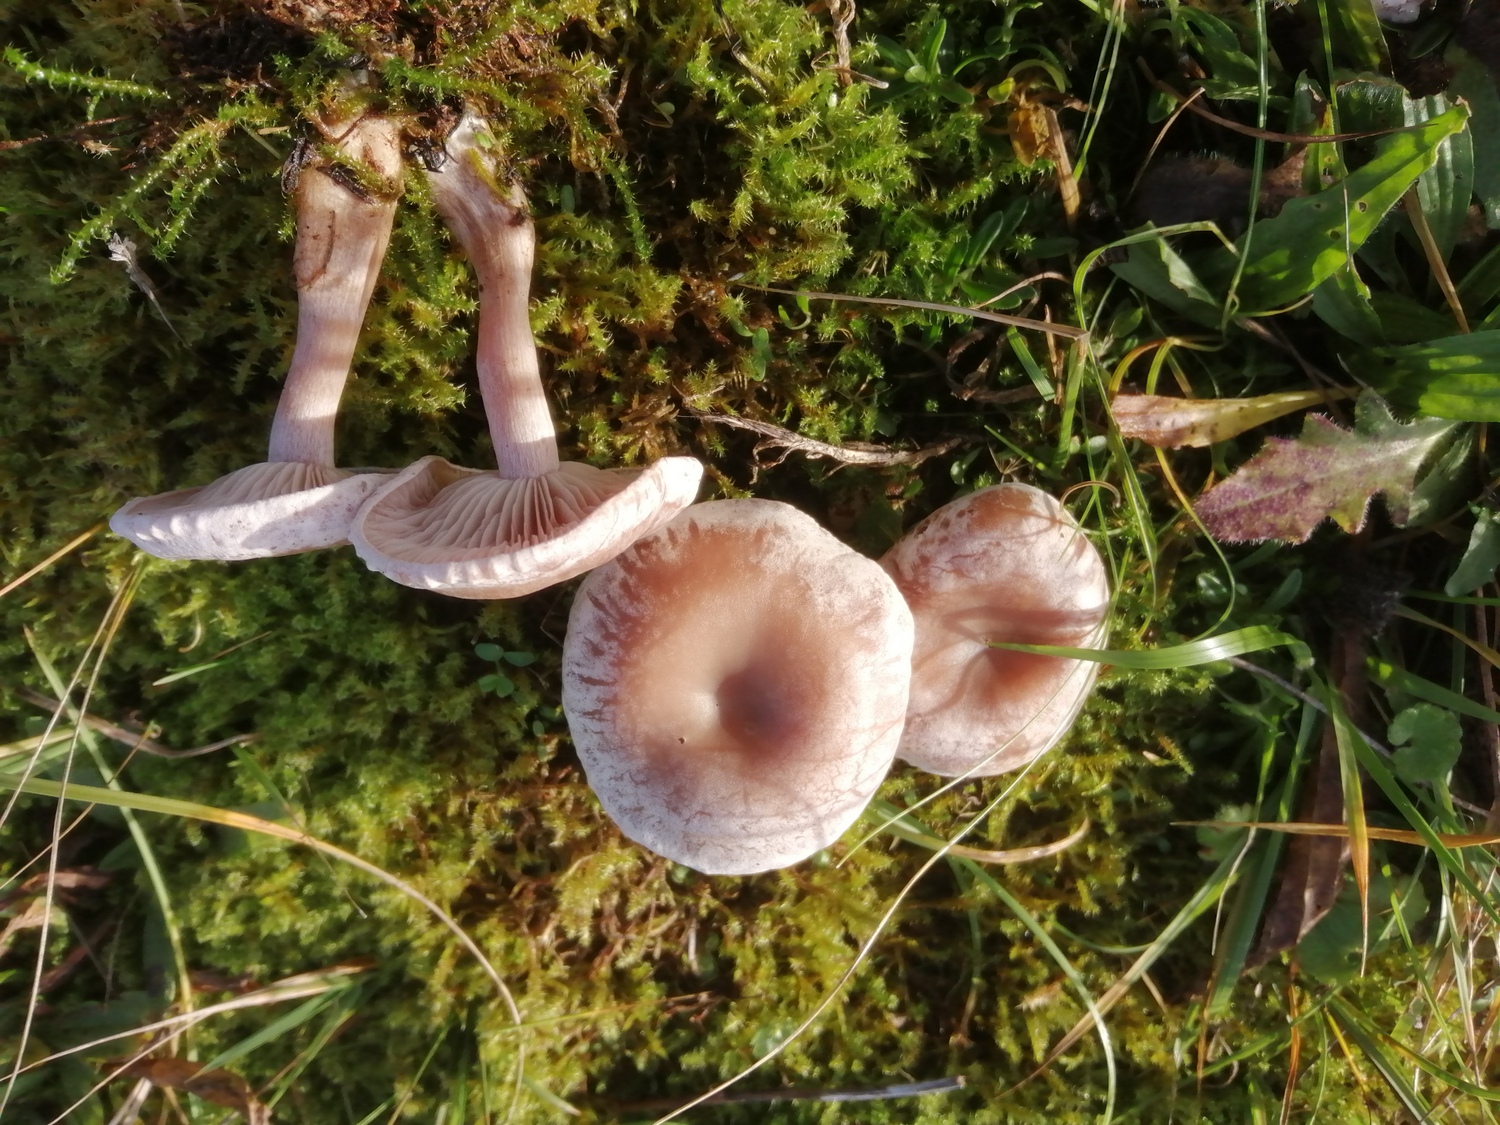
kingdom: Fungi
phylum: Basidiomycota
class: Agaricomycetes
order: Agaricales
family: Tricholomataceae
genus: Clitocybe
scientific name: Clitocybe rivulosa
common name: eng-tragthat
